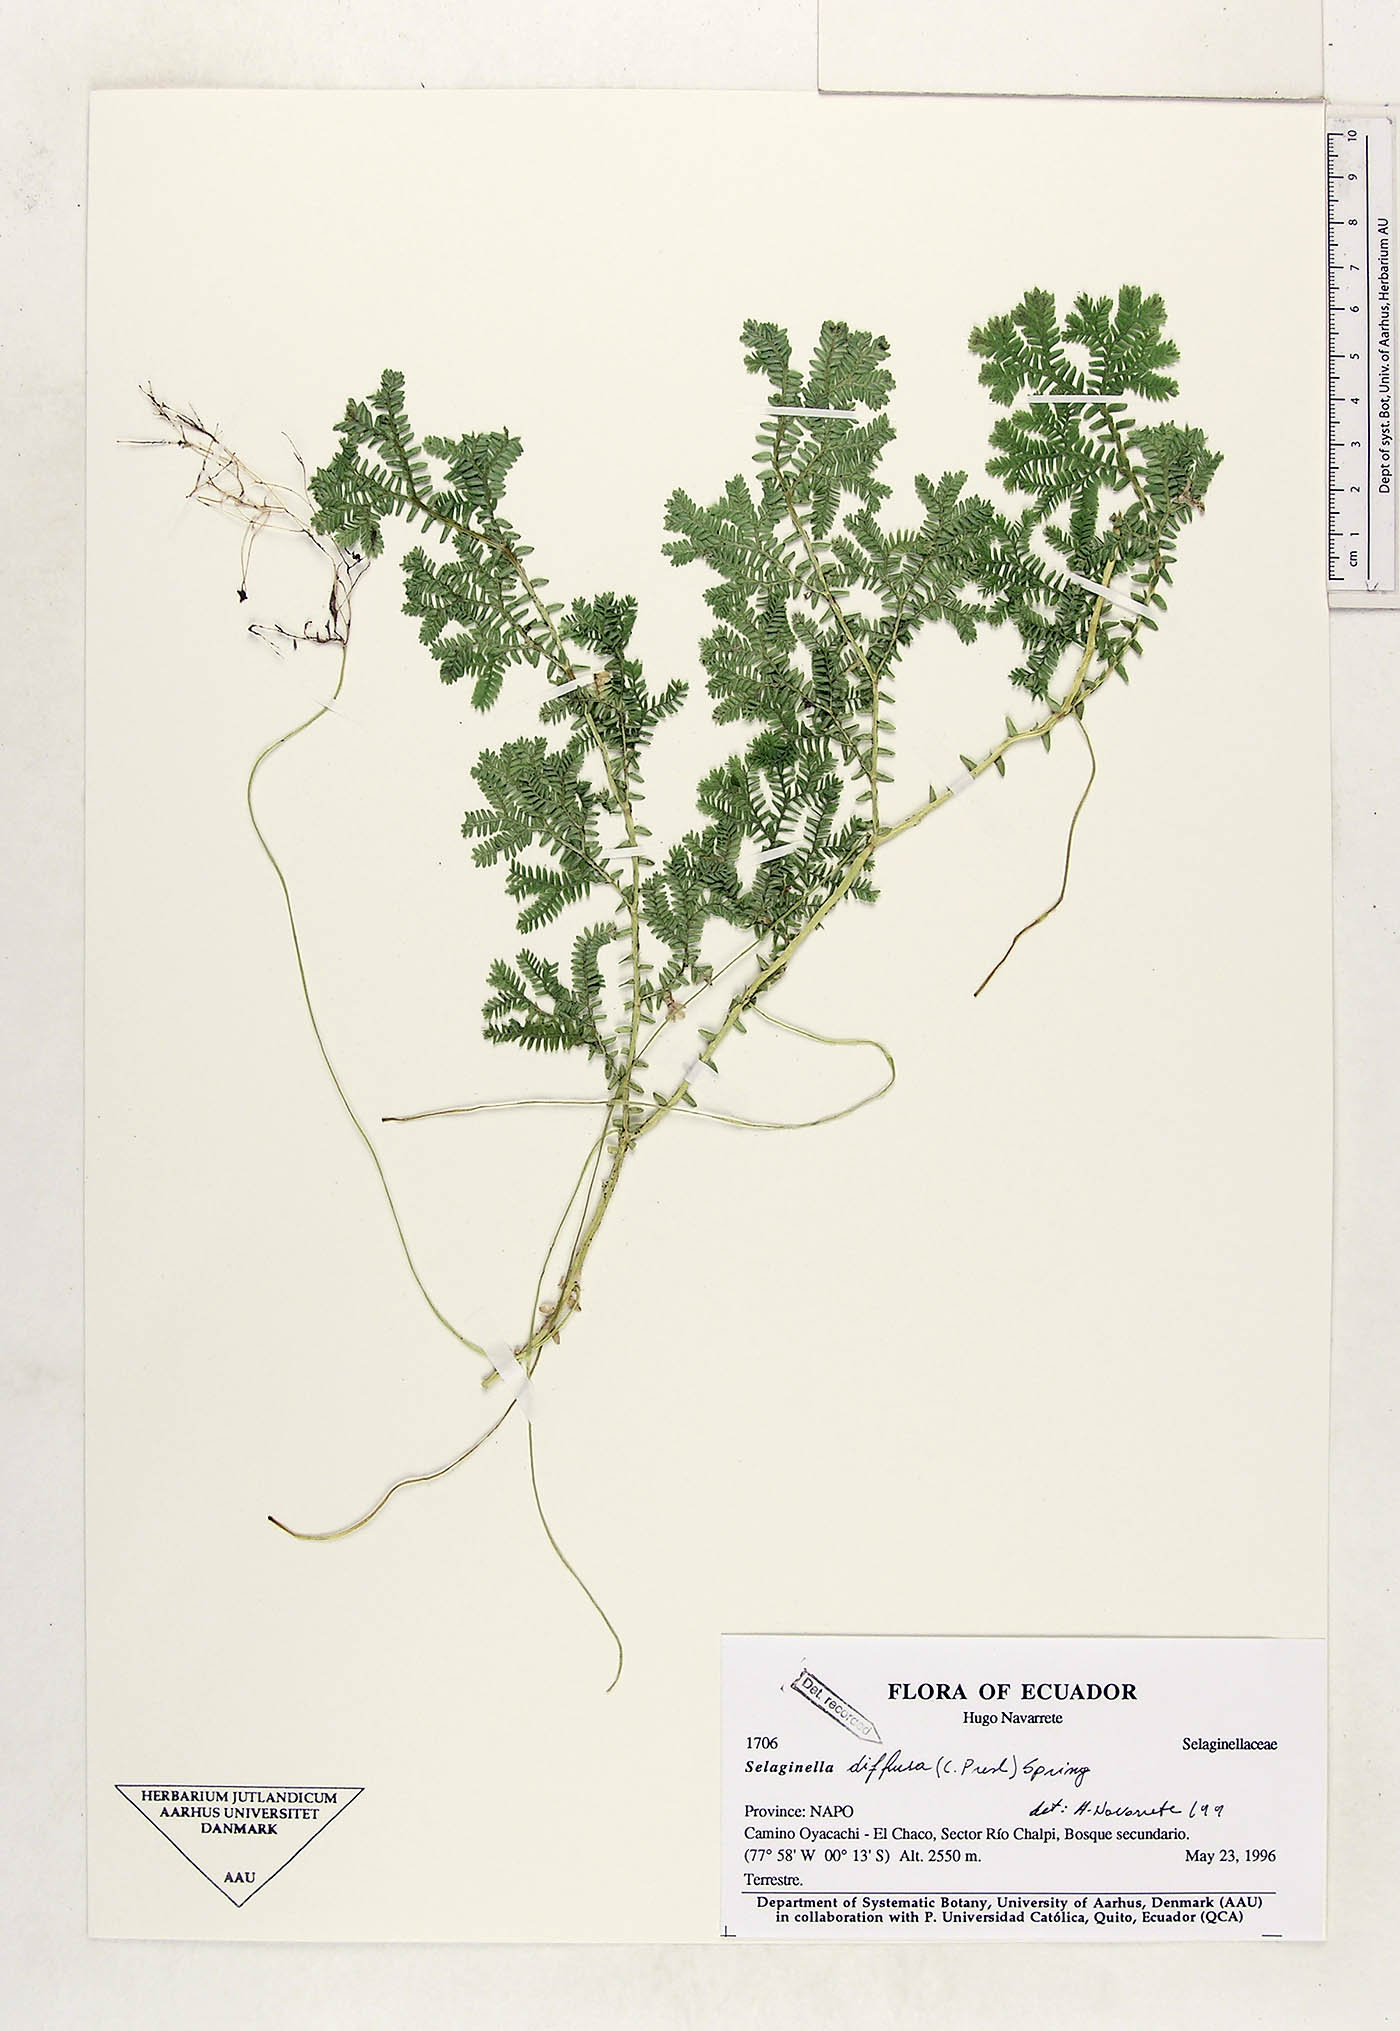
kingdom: Plantae
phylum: Tracheophyta
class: Lycopodiopsida
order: Selaginellales
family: Selaginellaceae
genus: Selaginella
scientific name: Selaginella diffusa
